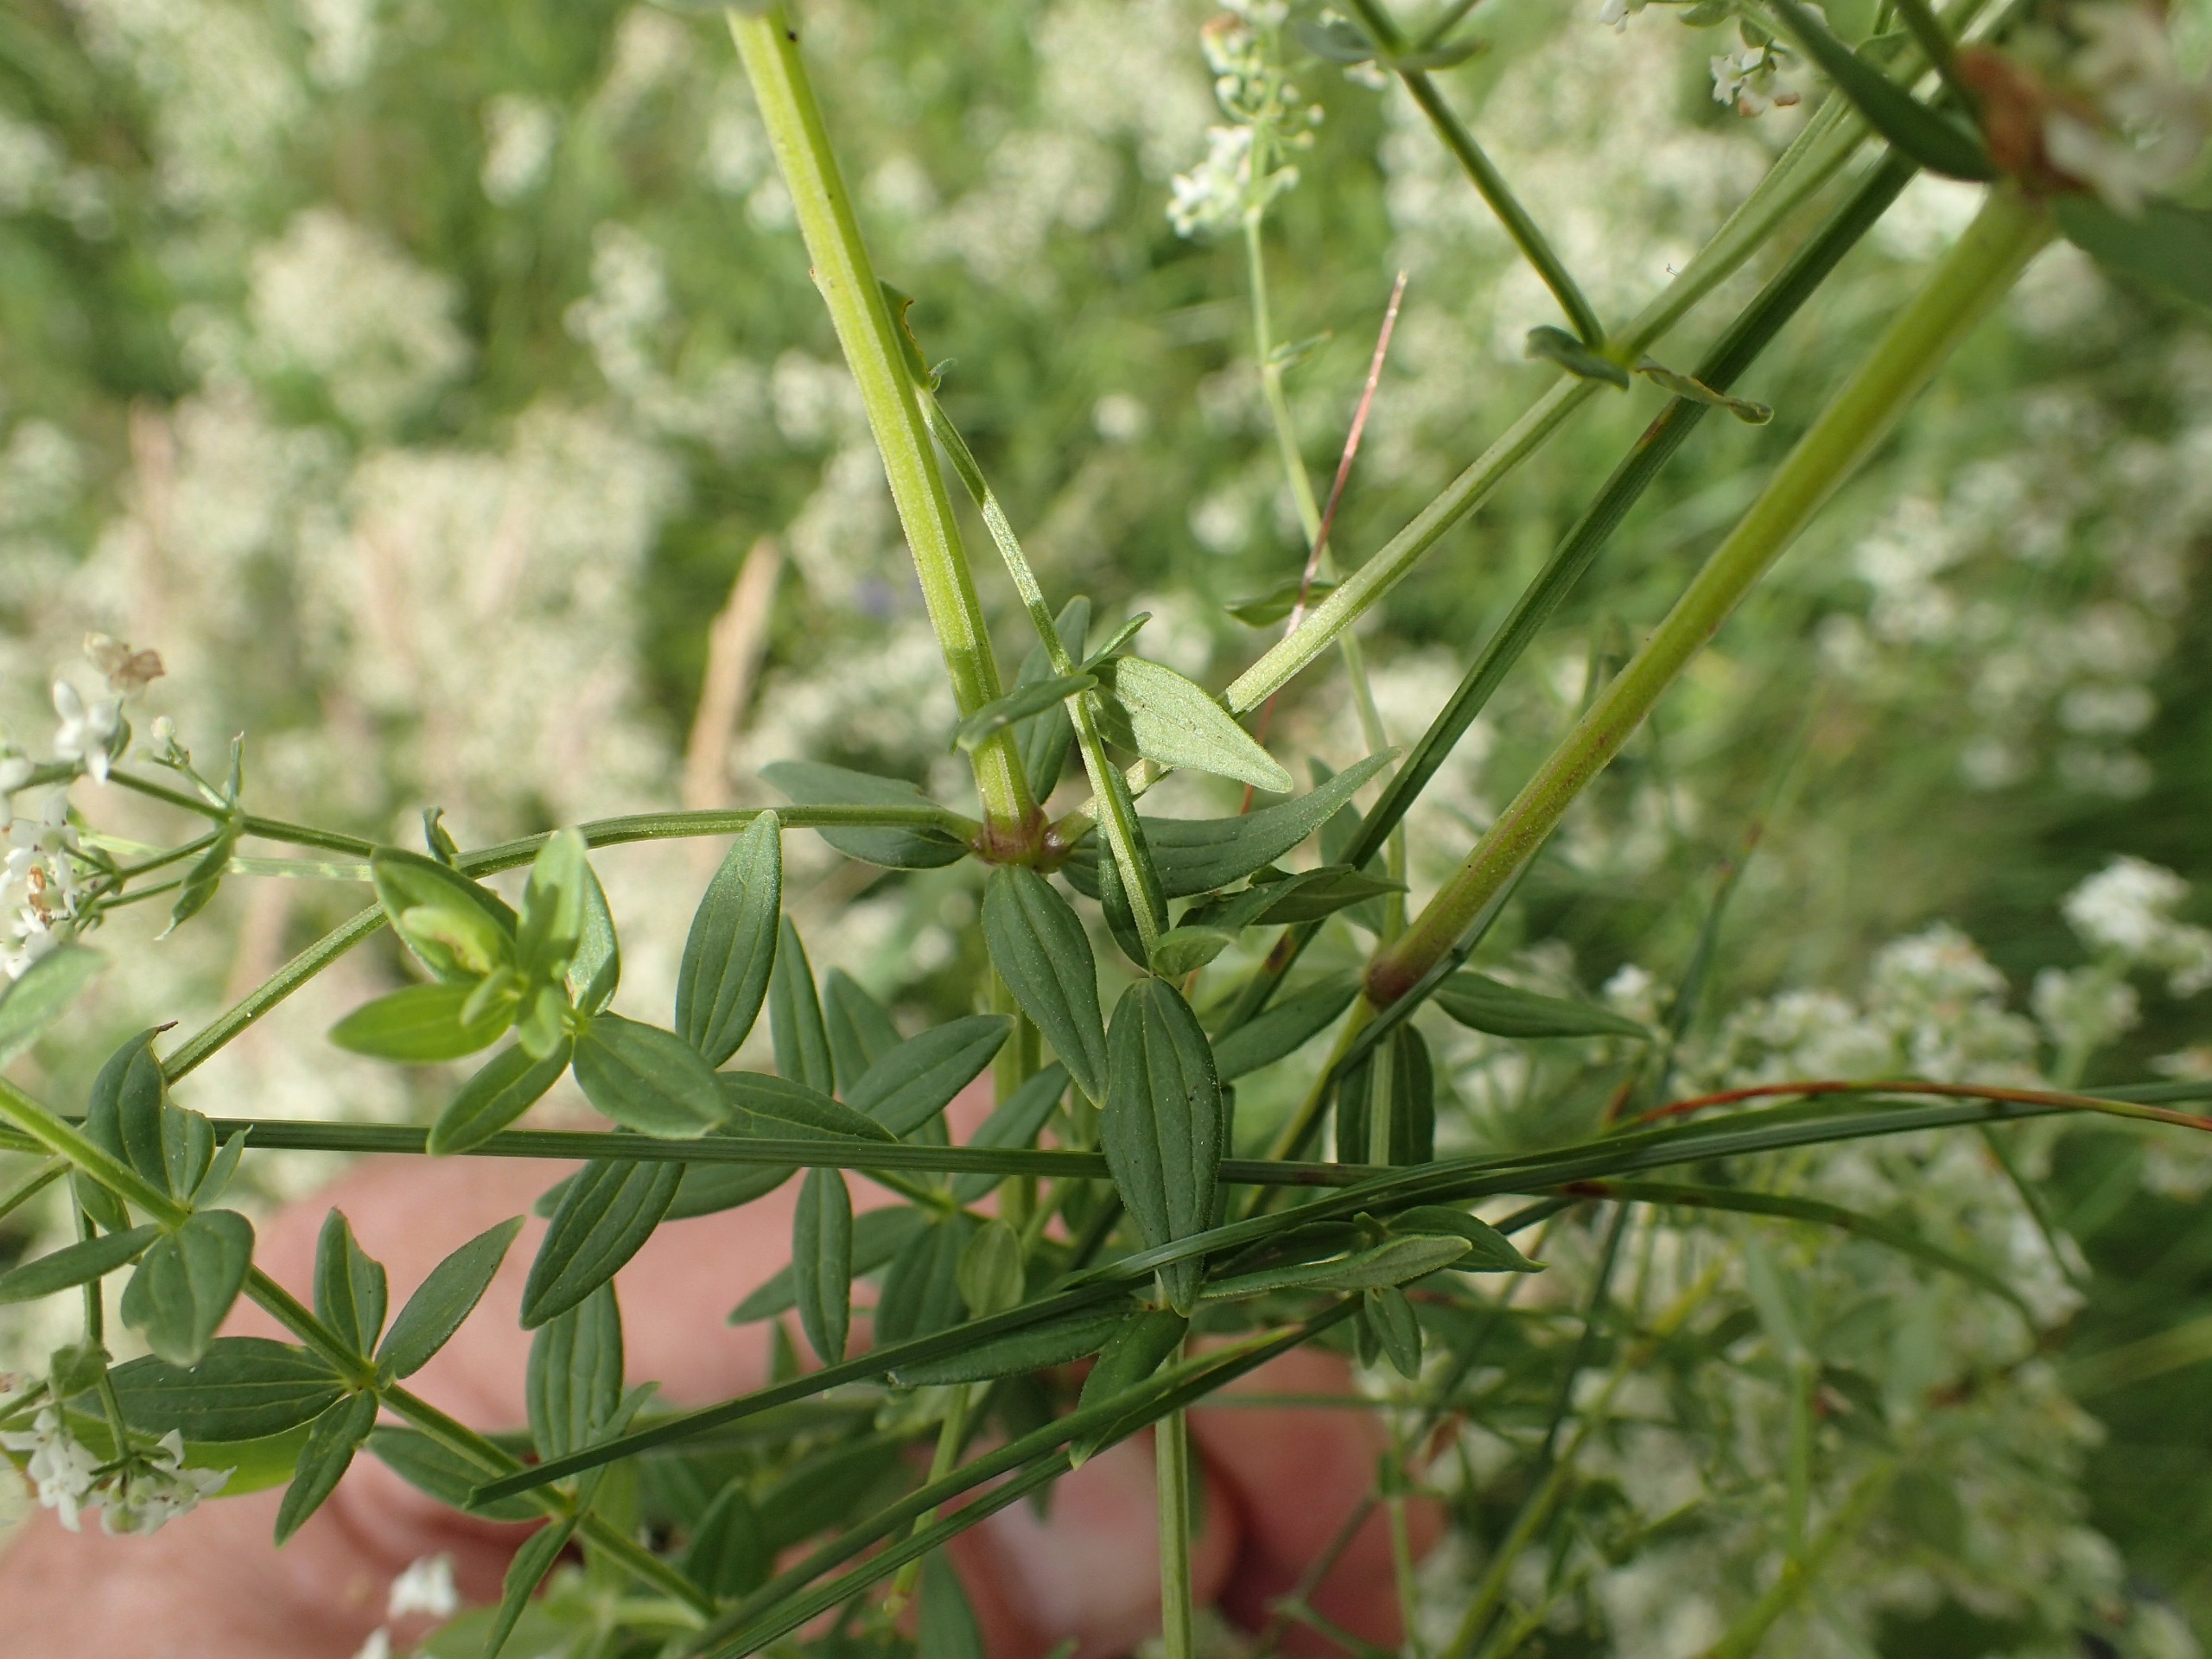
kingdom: Plantae
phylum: Tracheophyta
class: Magnoliopsida
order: Gentianales
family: Rubiaceae
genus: Galium
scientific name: Galium boreale
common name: Trenervet snerre
